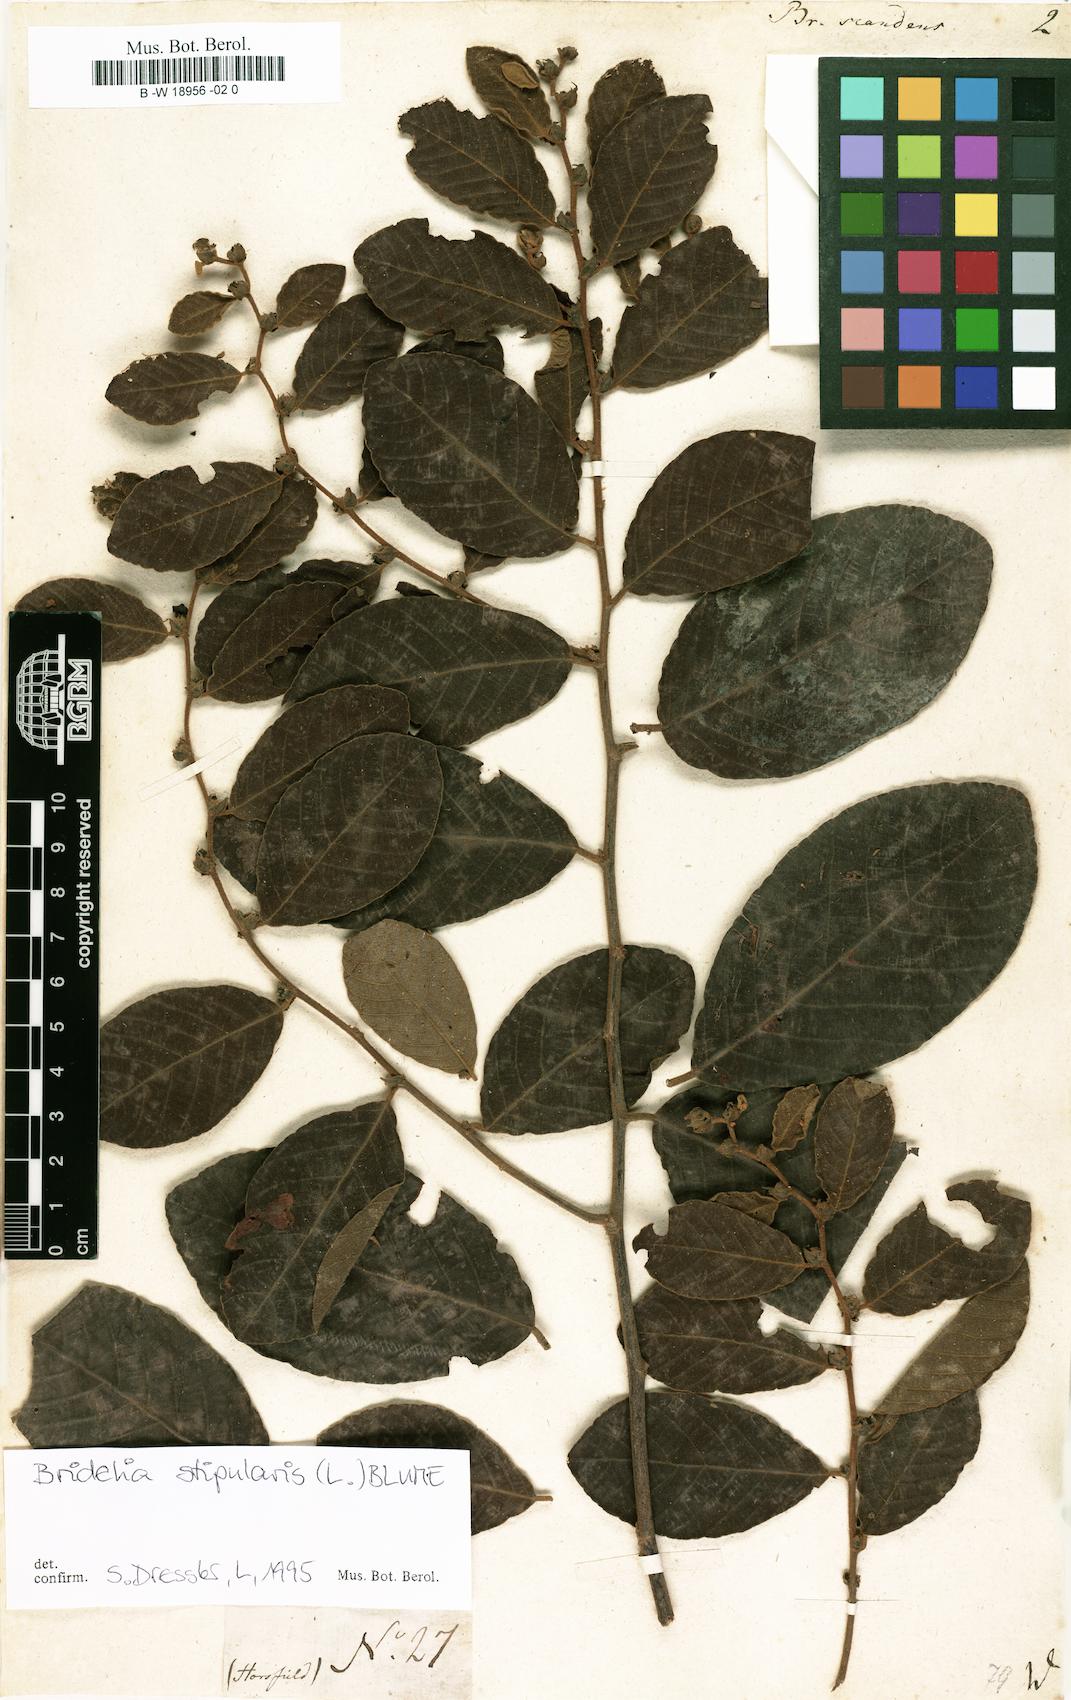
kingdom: Plantae
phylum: Tracheophyta
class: Magnoliopsida
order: Malpighiales
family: Euphorbiaceae
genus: Briedelia
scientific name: Briedelia
